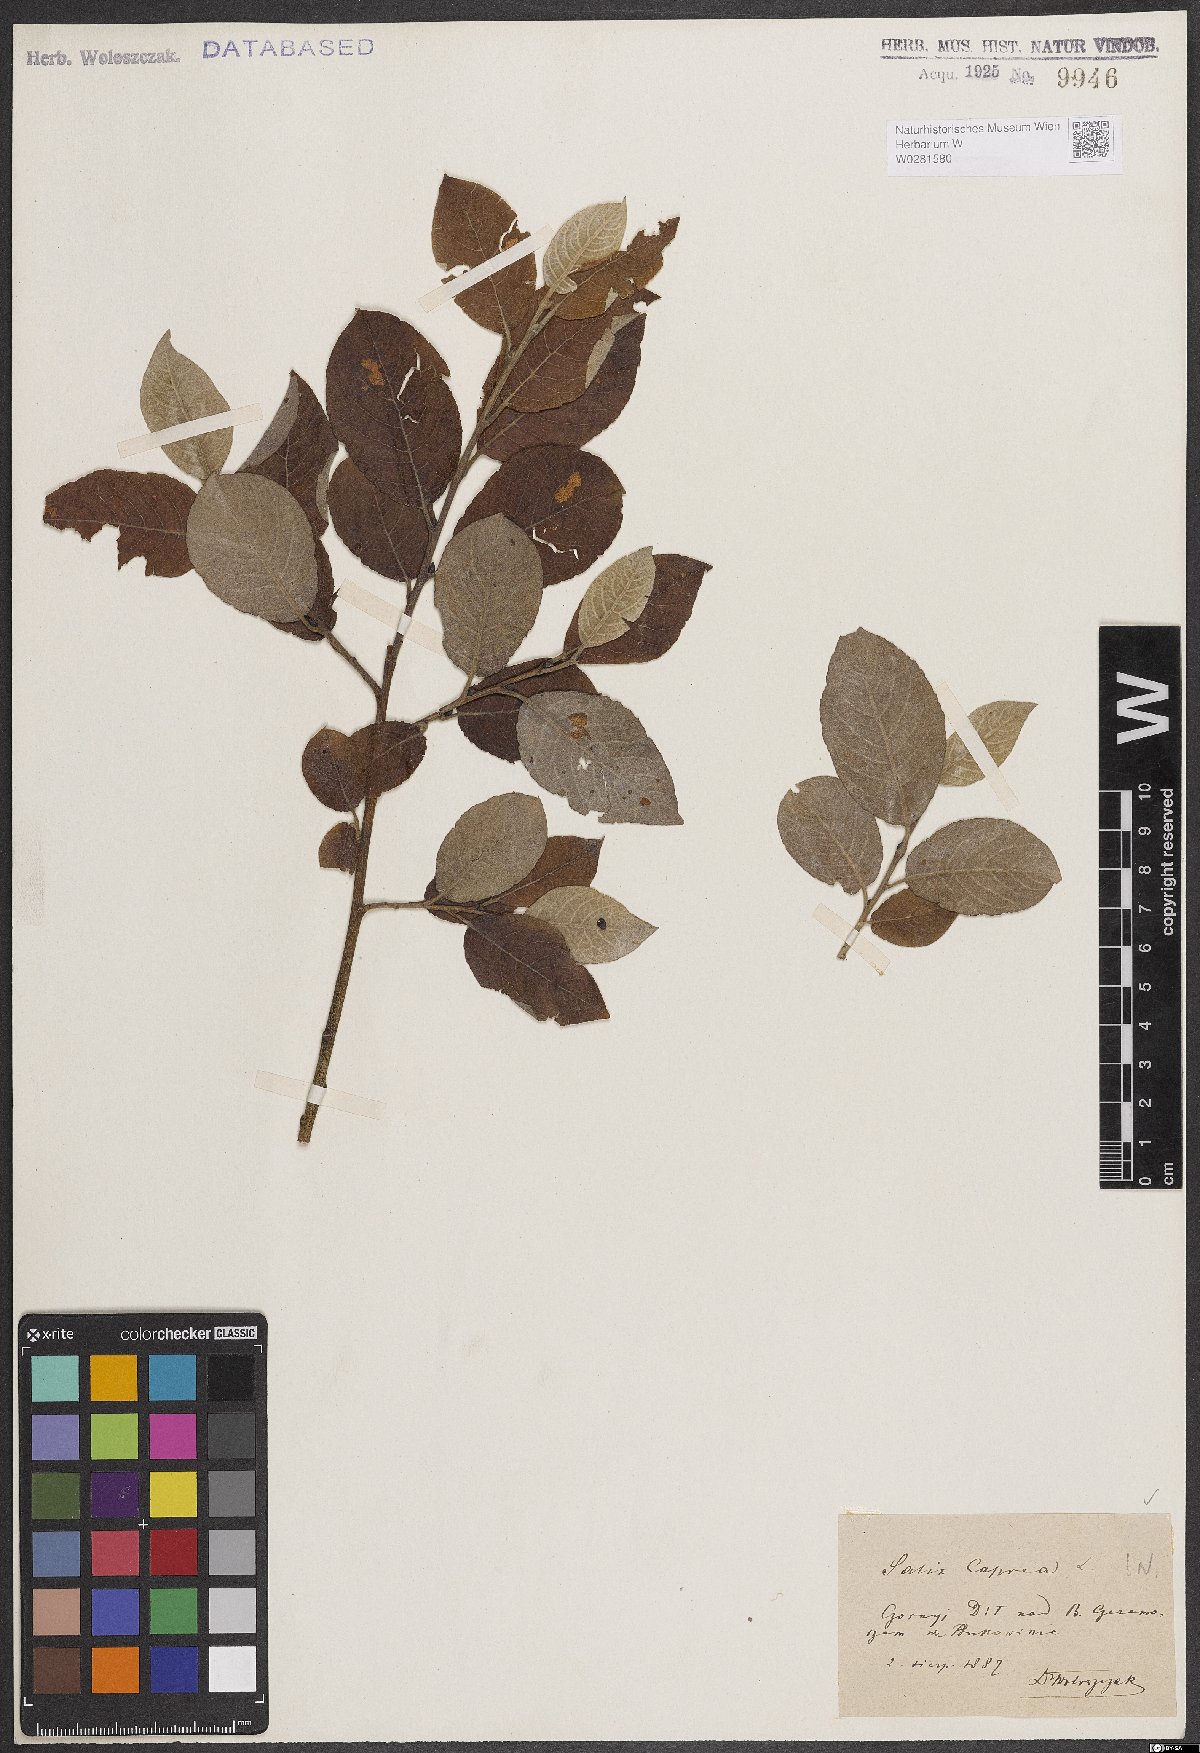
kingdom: Plantae
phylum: Tracheophyta
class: Magnoliopsida
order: Malpighiales
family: Salicaceae
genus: Salix
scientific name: Salix caprea
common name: Goat willow
